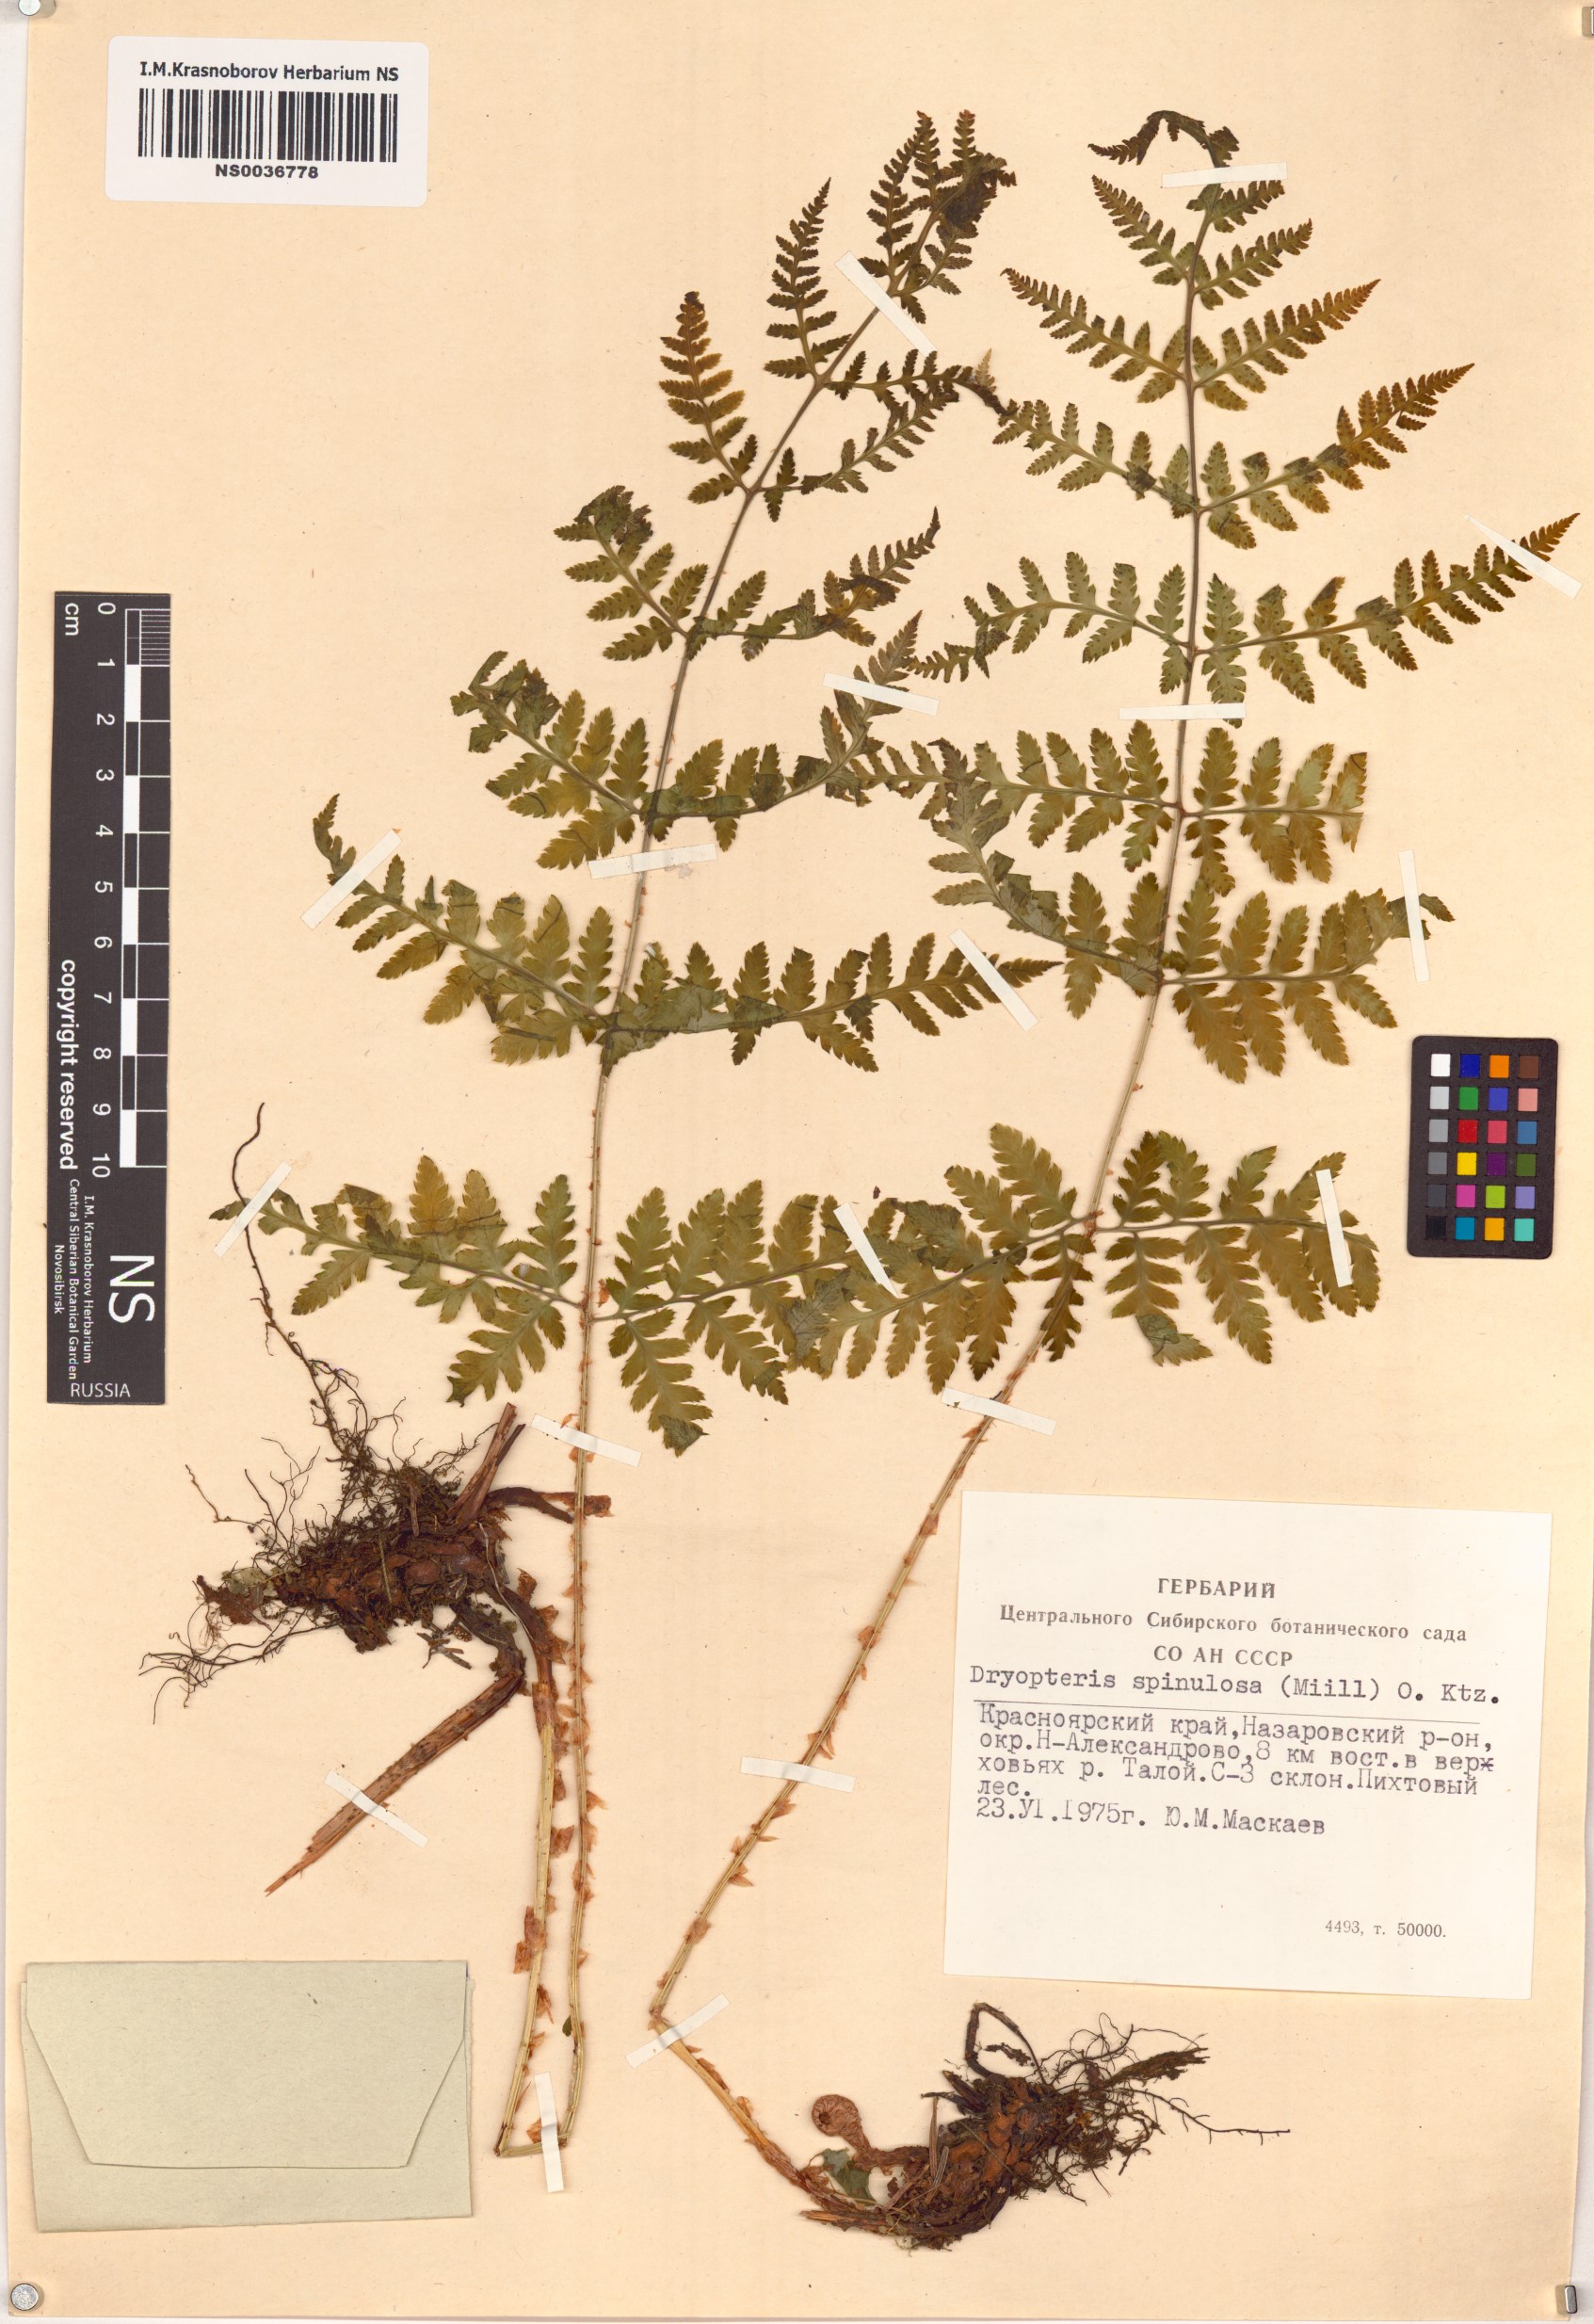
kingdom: Plantae
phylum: Tracheophyta
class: Polypodiopsida
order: Polypodiales
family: Dryopteridaceae
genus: Dryopteris
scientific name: Dryopteris carthusiana
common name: Narrow buckler-fern
